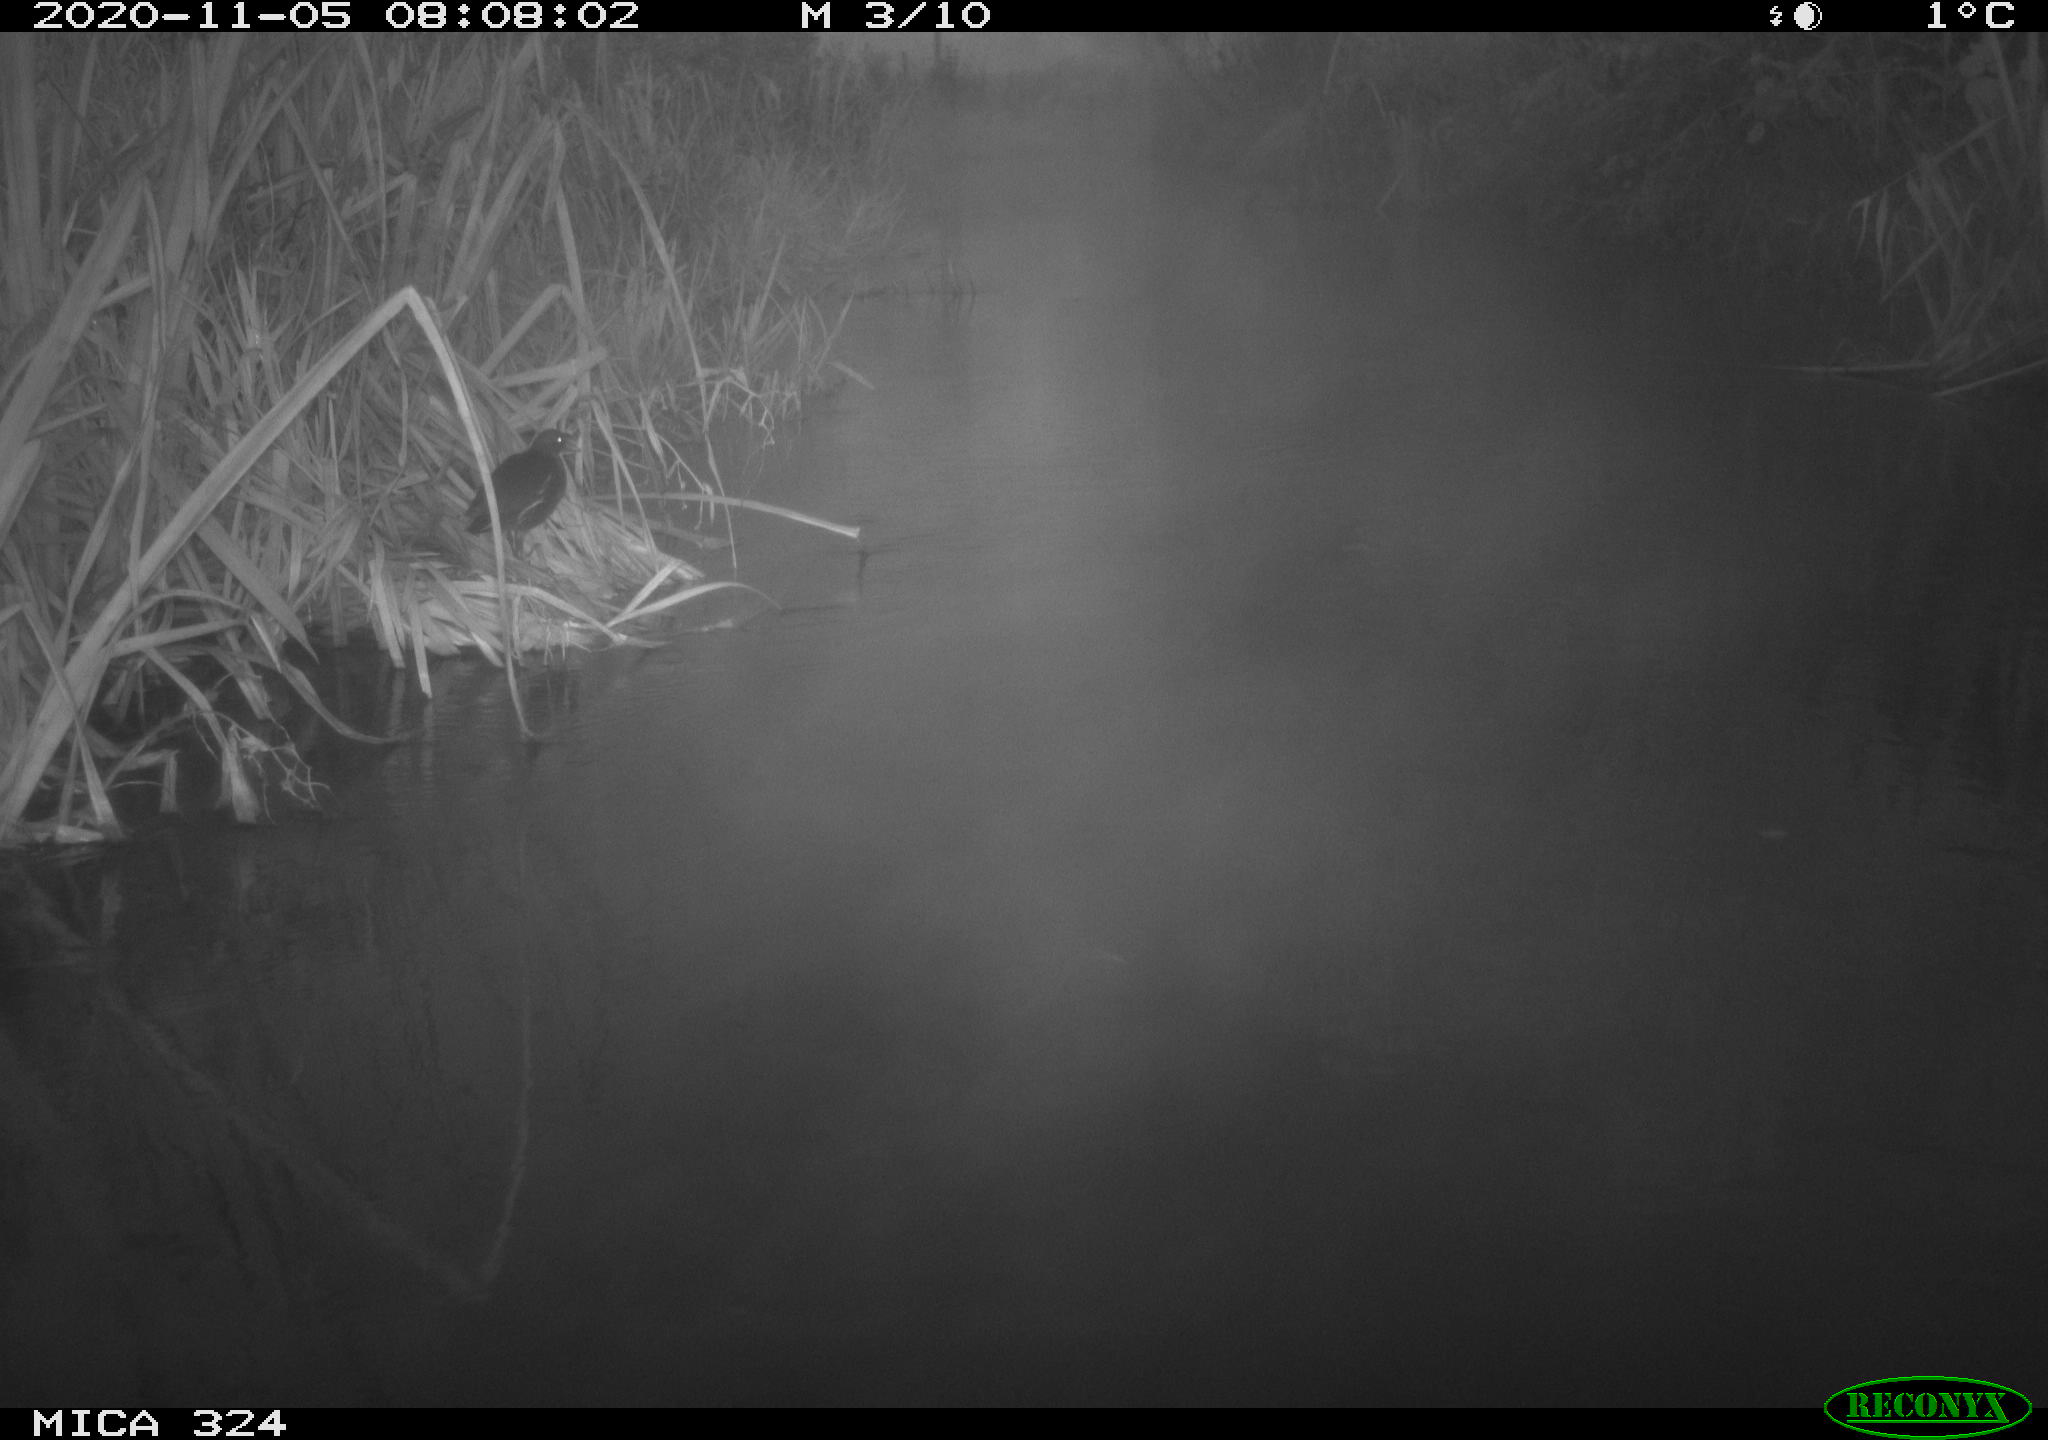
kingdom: Animalia
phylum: Chordata
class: Aves
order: Gruiformes
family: Rallidae
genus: Gallinula
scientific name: Gallinula chloropus
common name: Common moorhen
